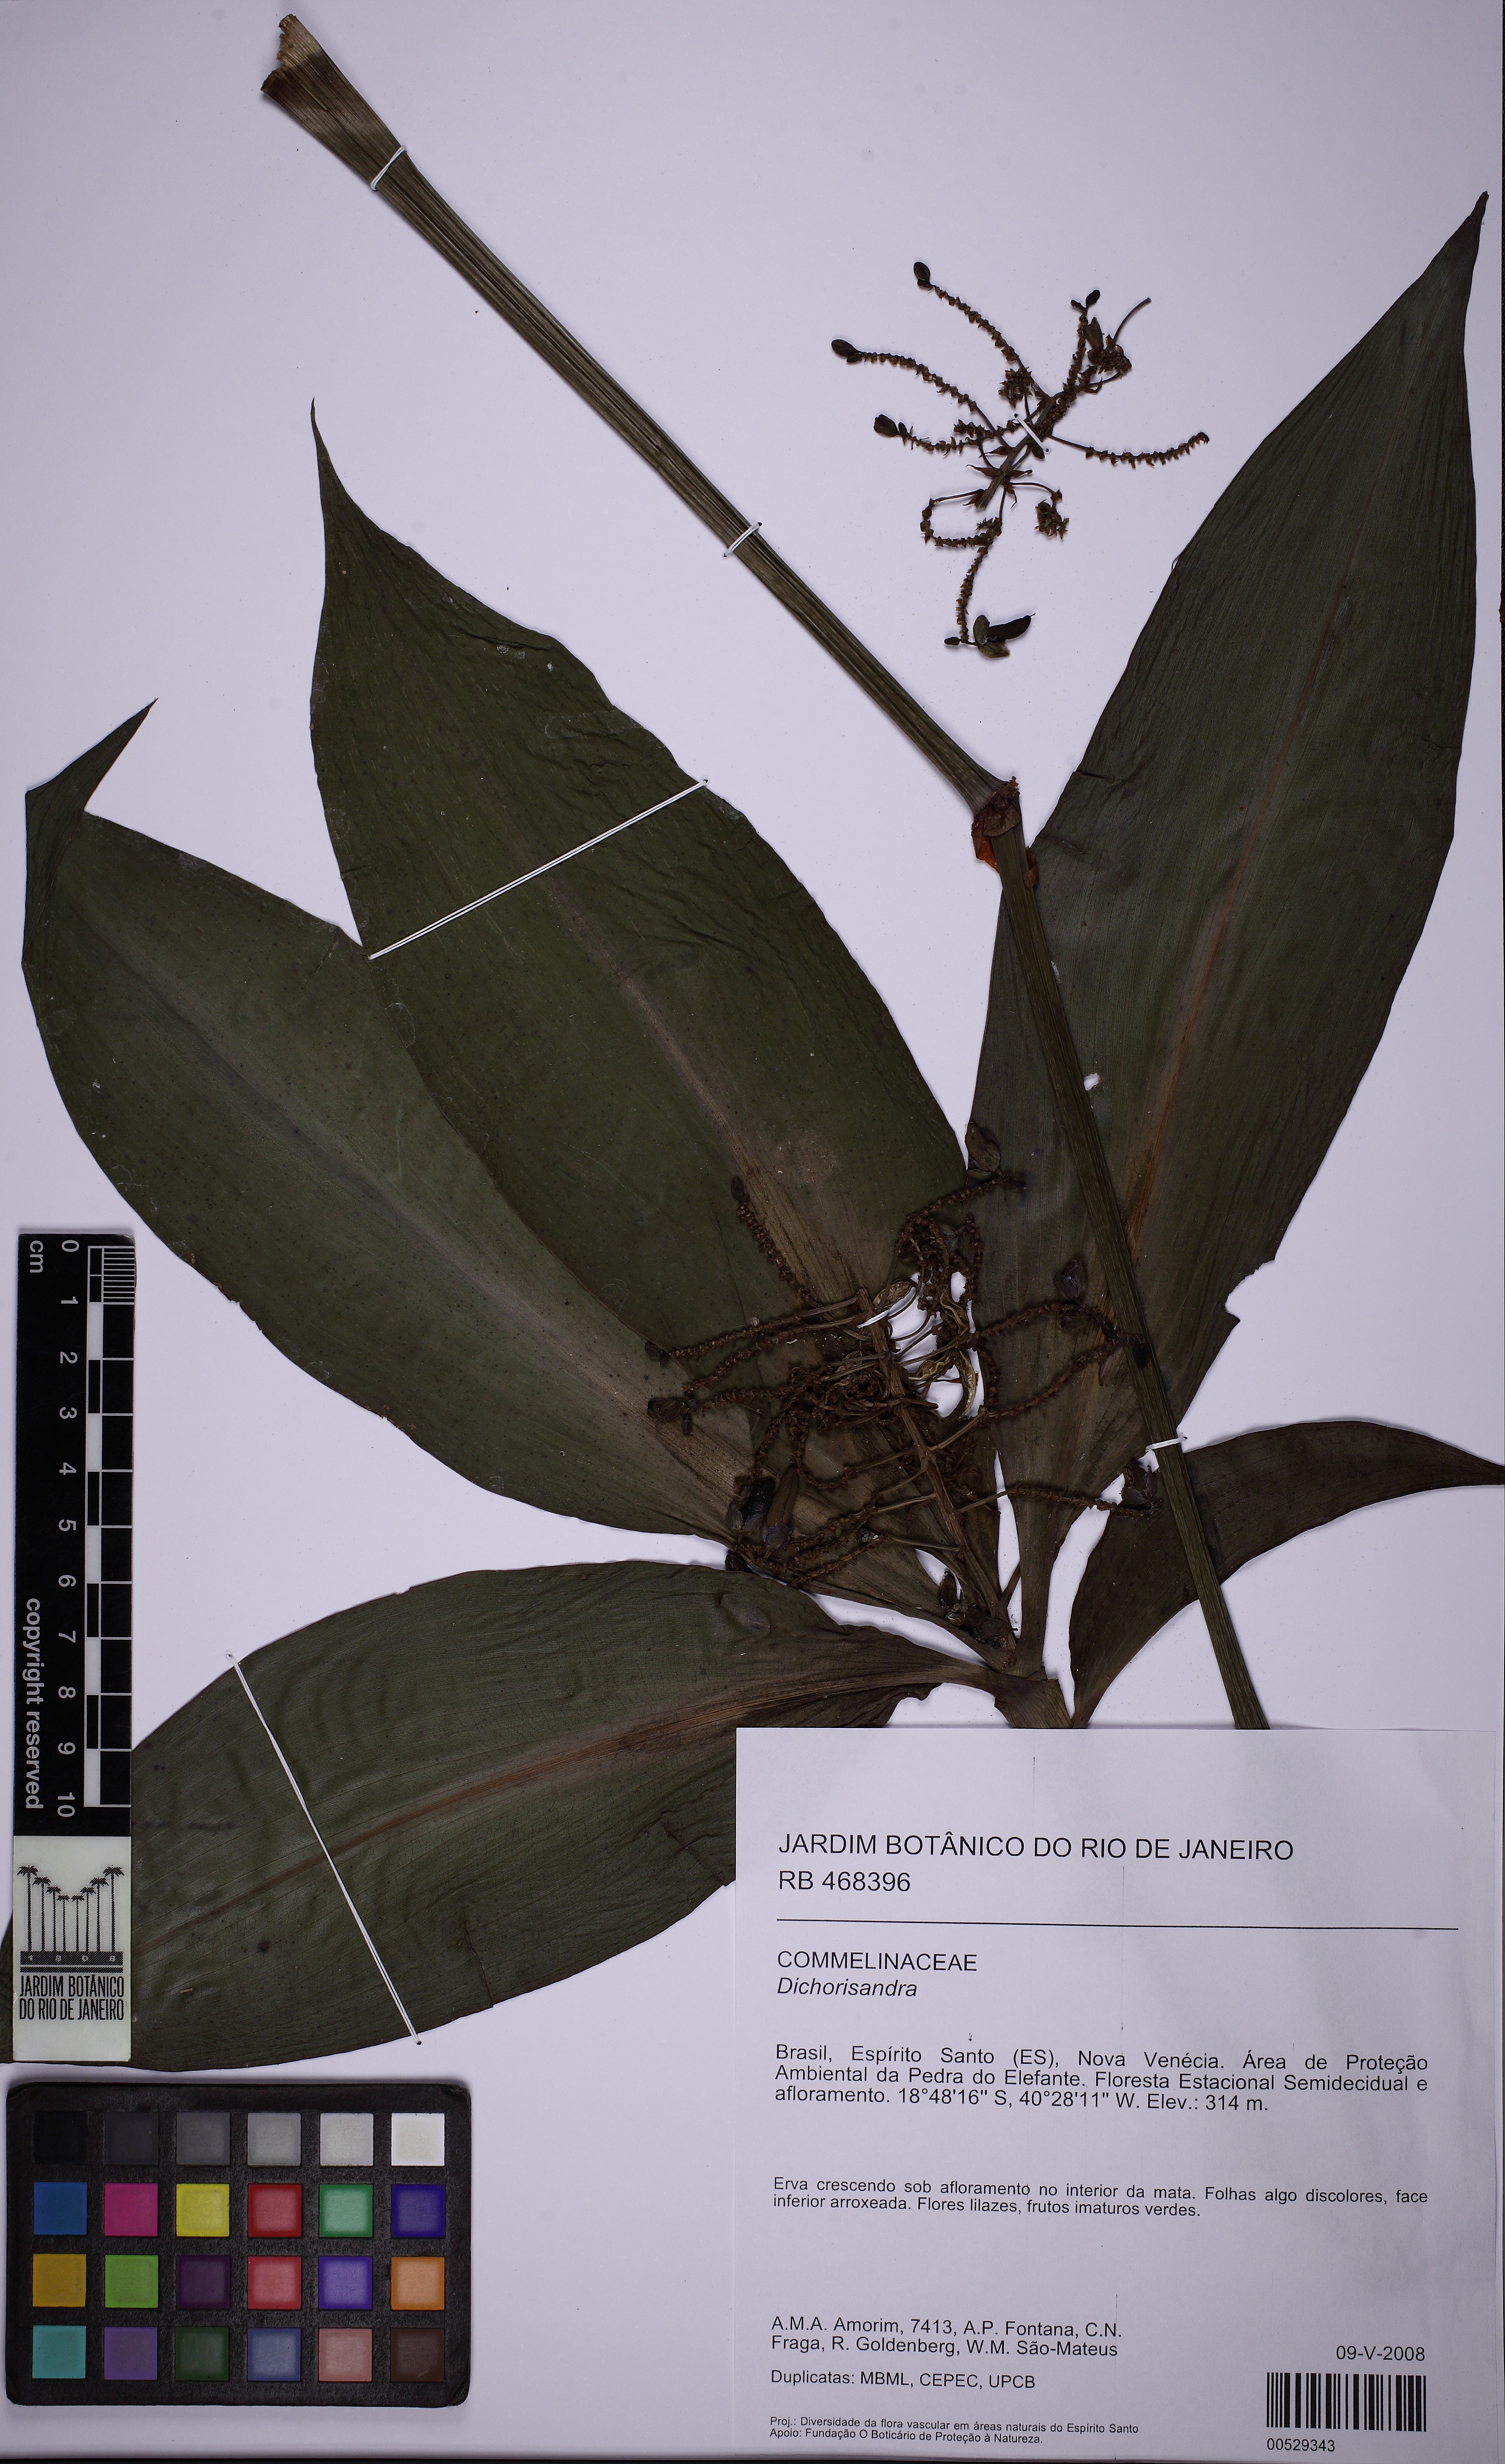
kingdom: Plantae
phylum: Tracheophyta
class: Liliopsida
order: Commelinales
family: Commelinaceae
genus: Dichorisandra
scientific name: Dichorisandra striatula
